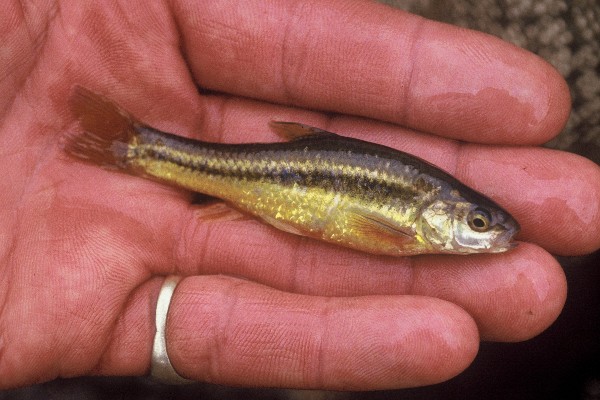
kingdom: Animalia
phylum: Chordata
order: Cypriniformes
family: Cyprinidae
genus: Enteromius
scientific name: Enteromius anoplus
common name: Chubbyhead barb
